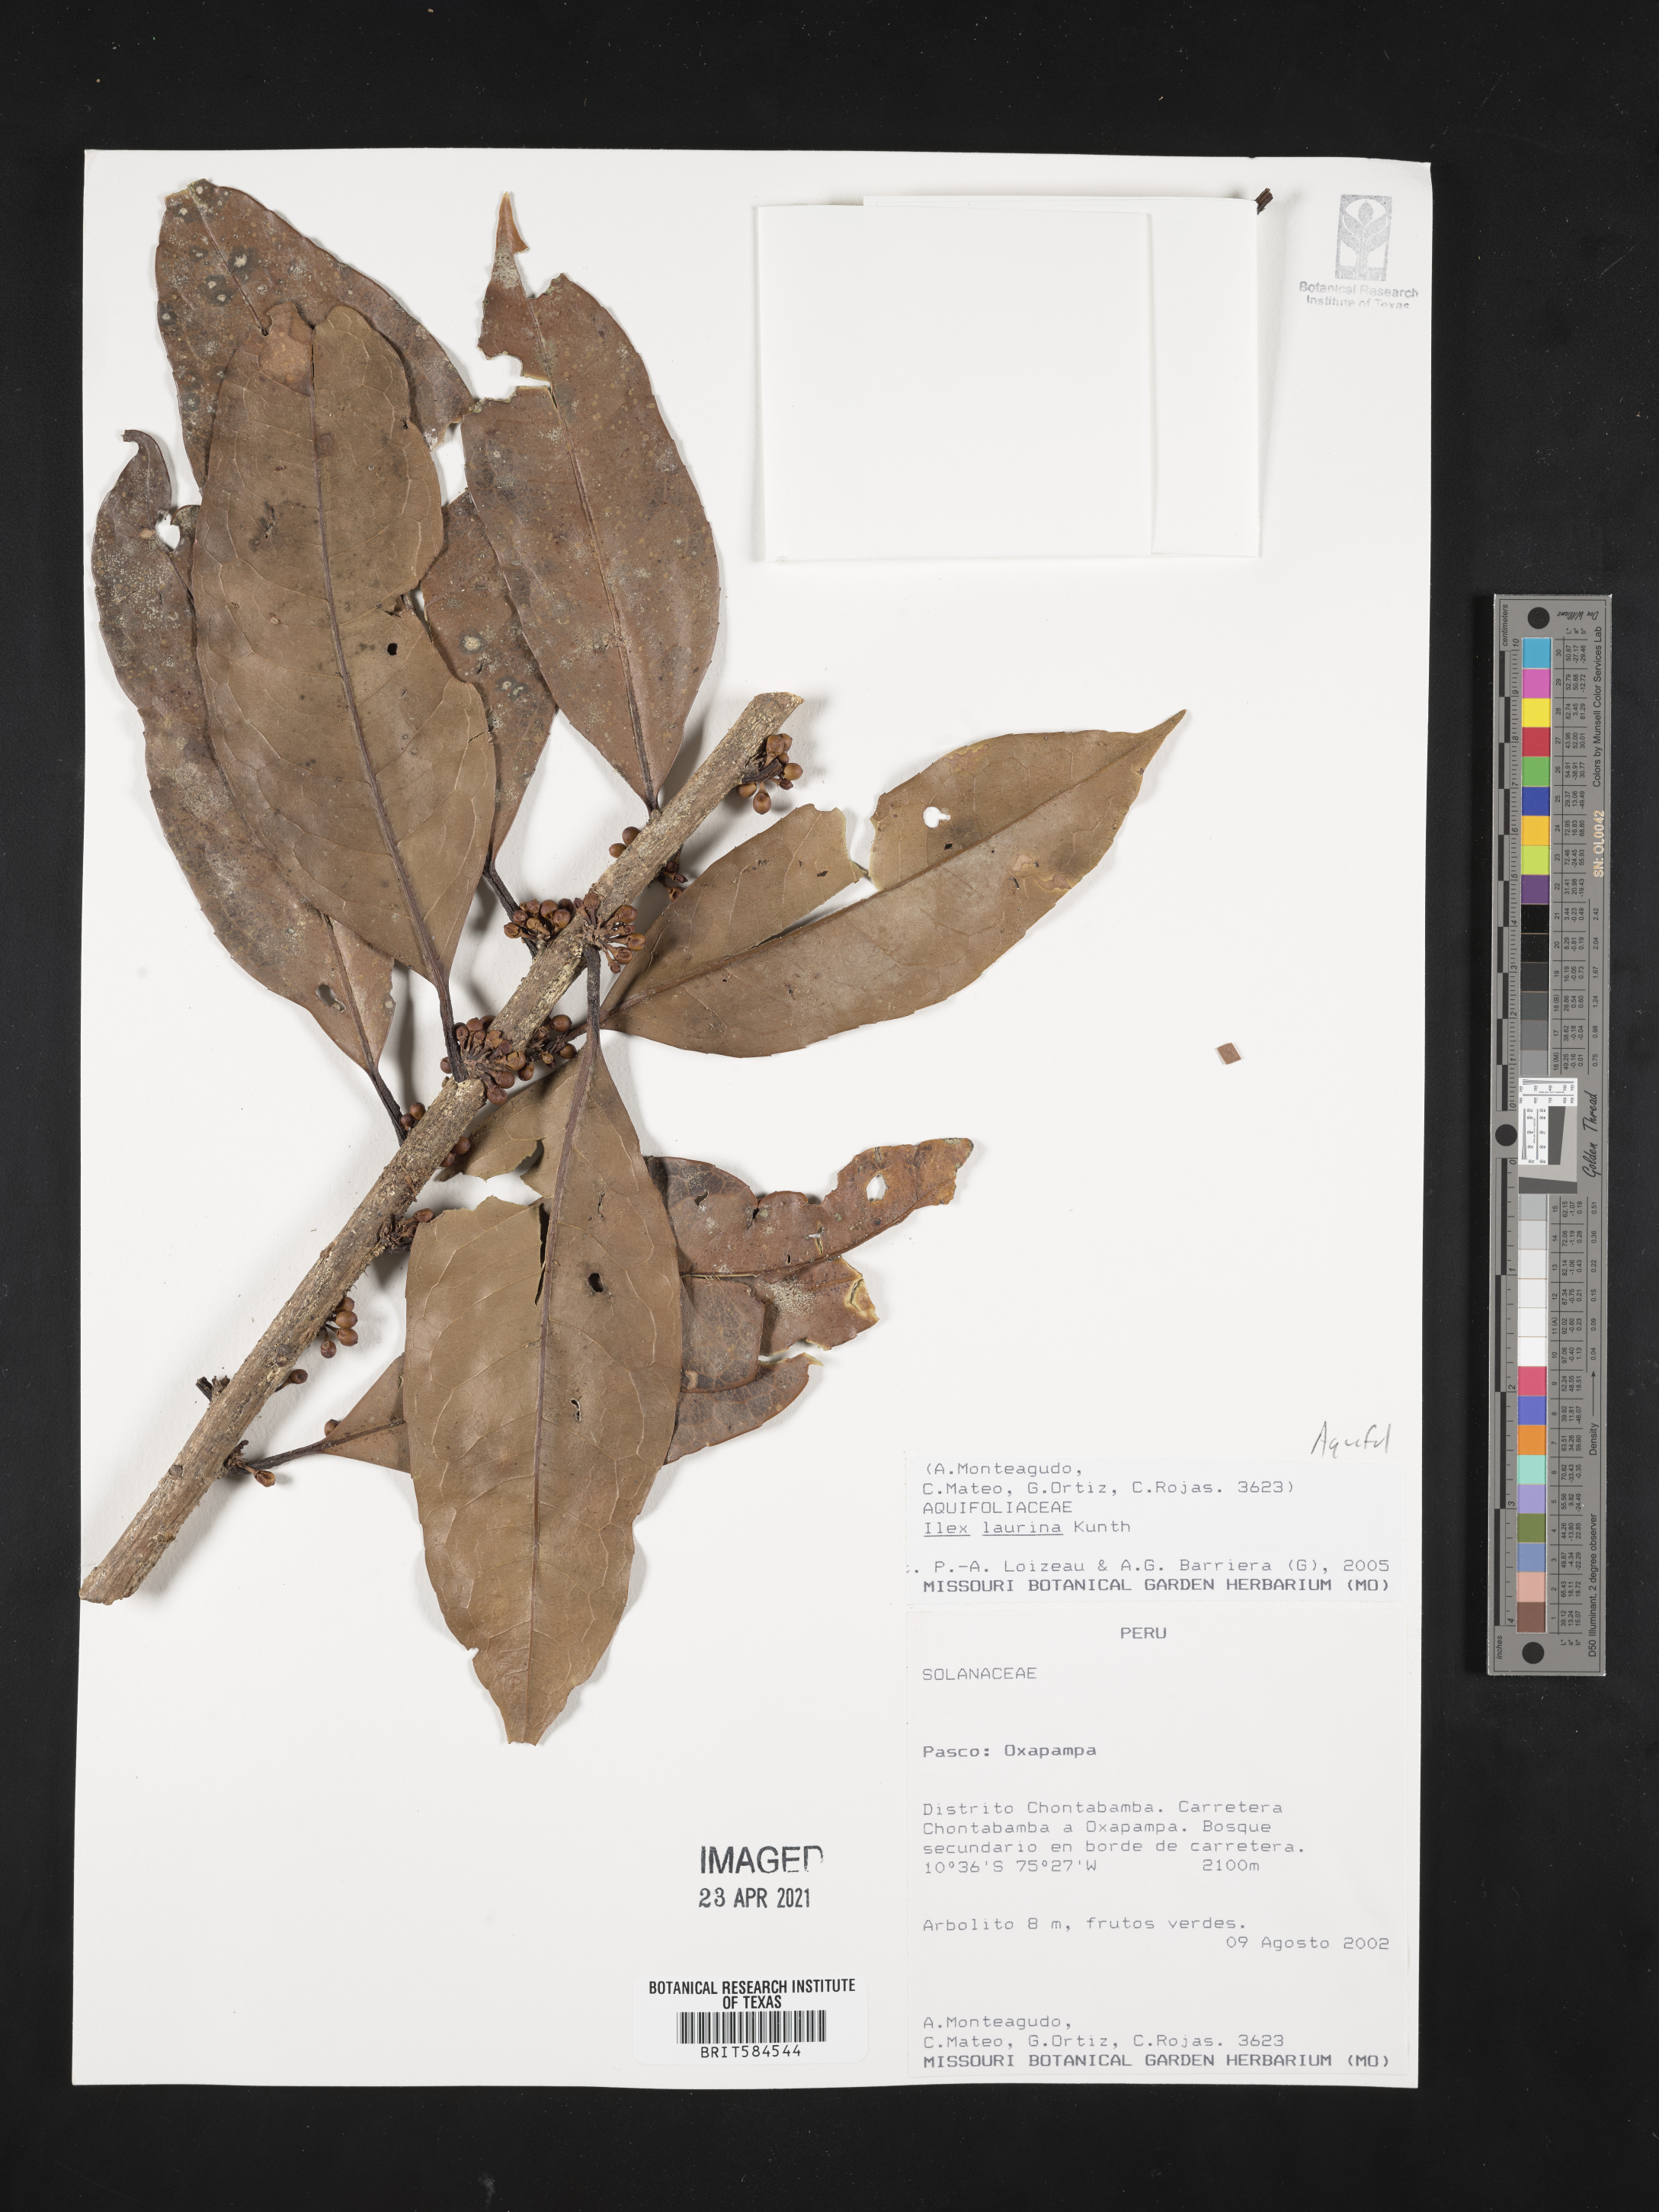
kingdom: Plantae
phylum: Tracheophyta
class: Magnoliopsida
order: Aquifoliales
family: Aquifoliaceae
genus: Ilex
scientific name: Ilex laurina
